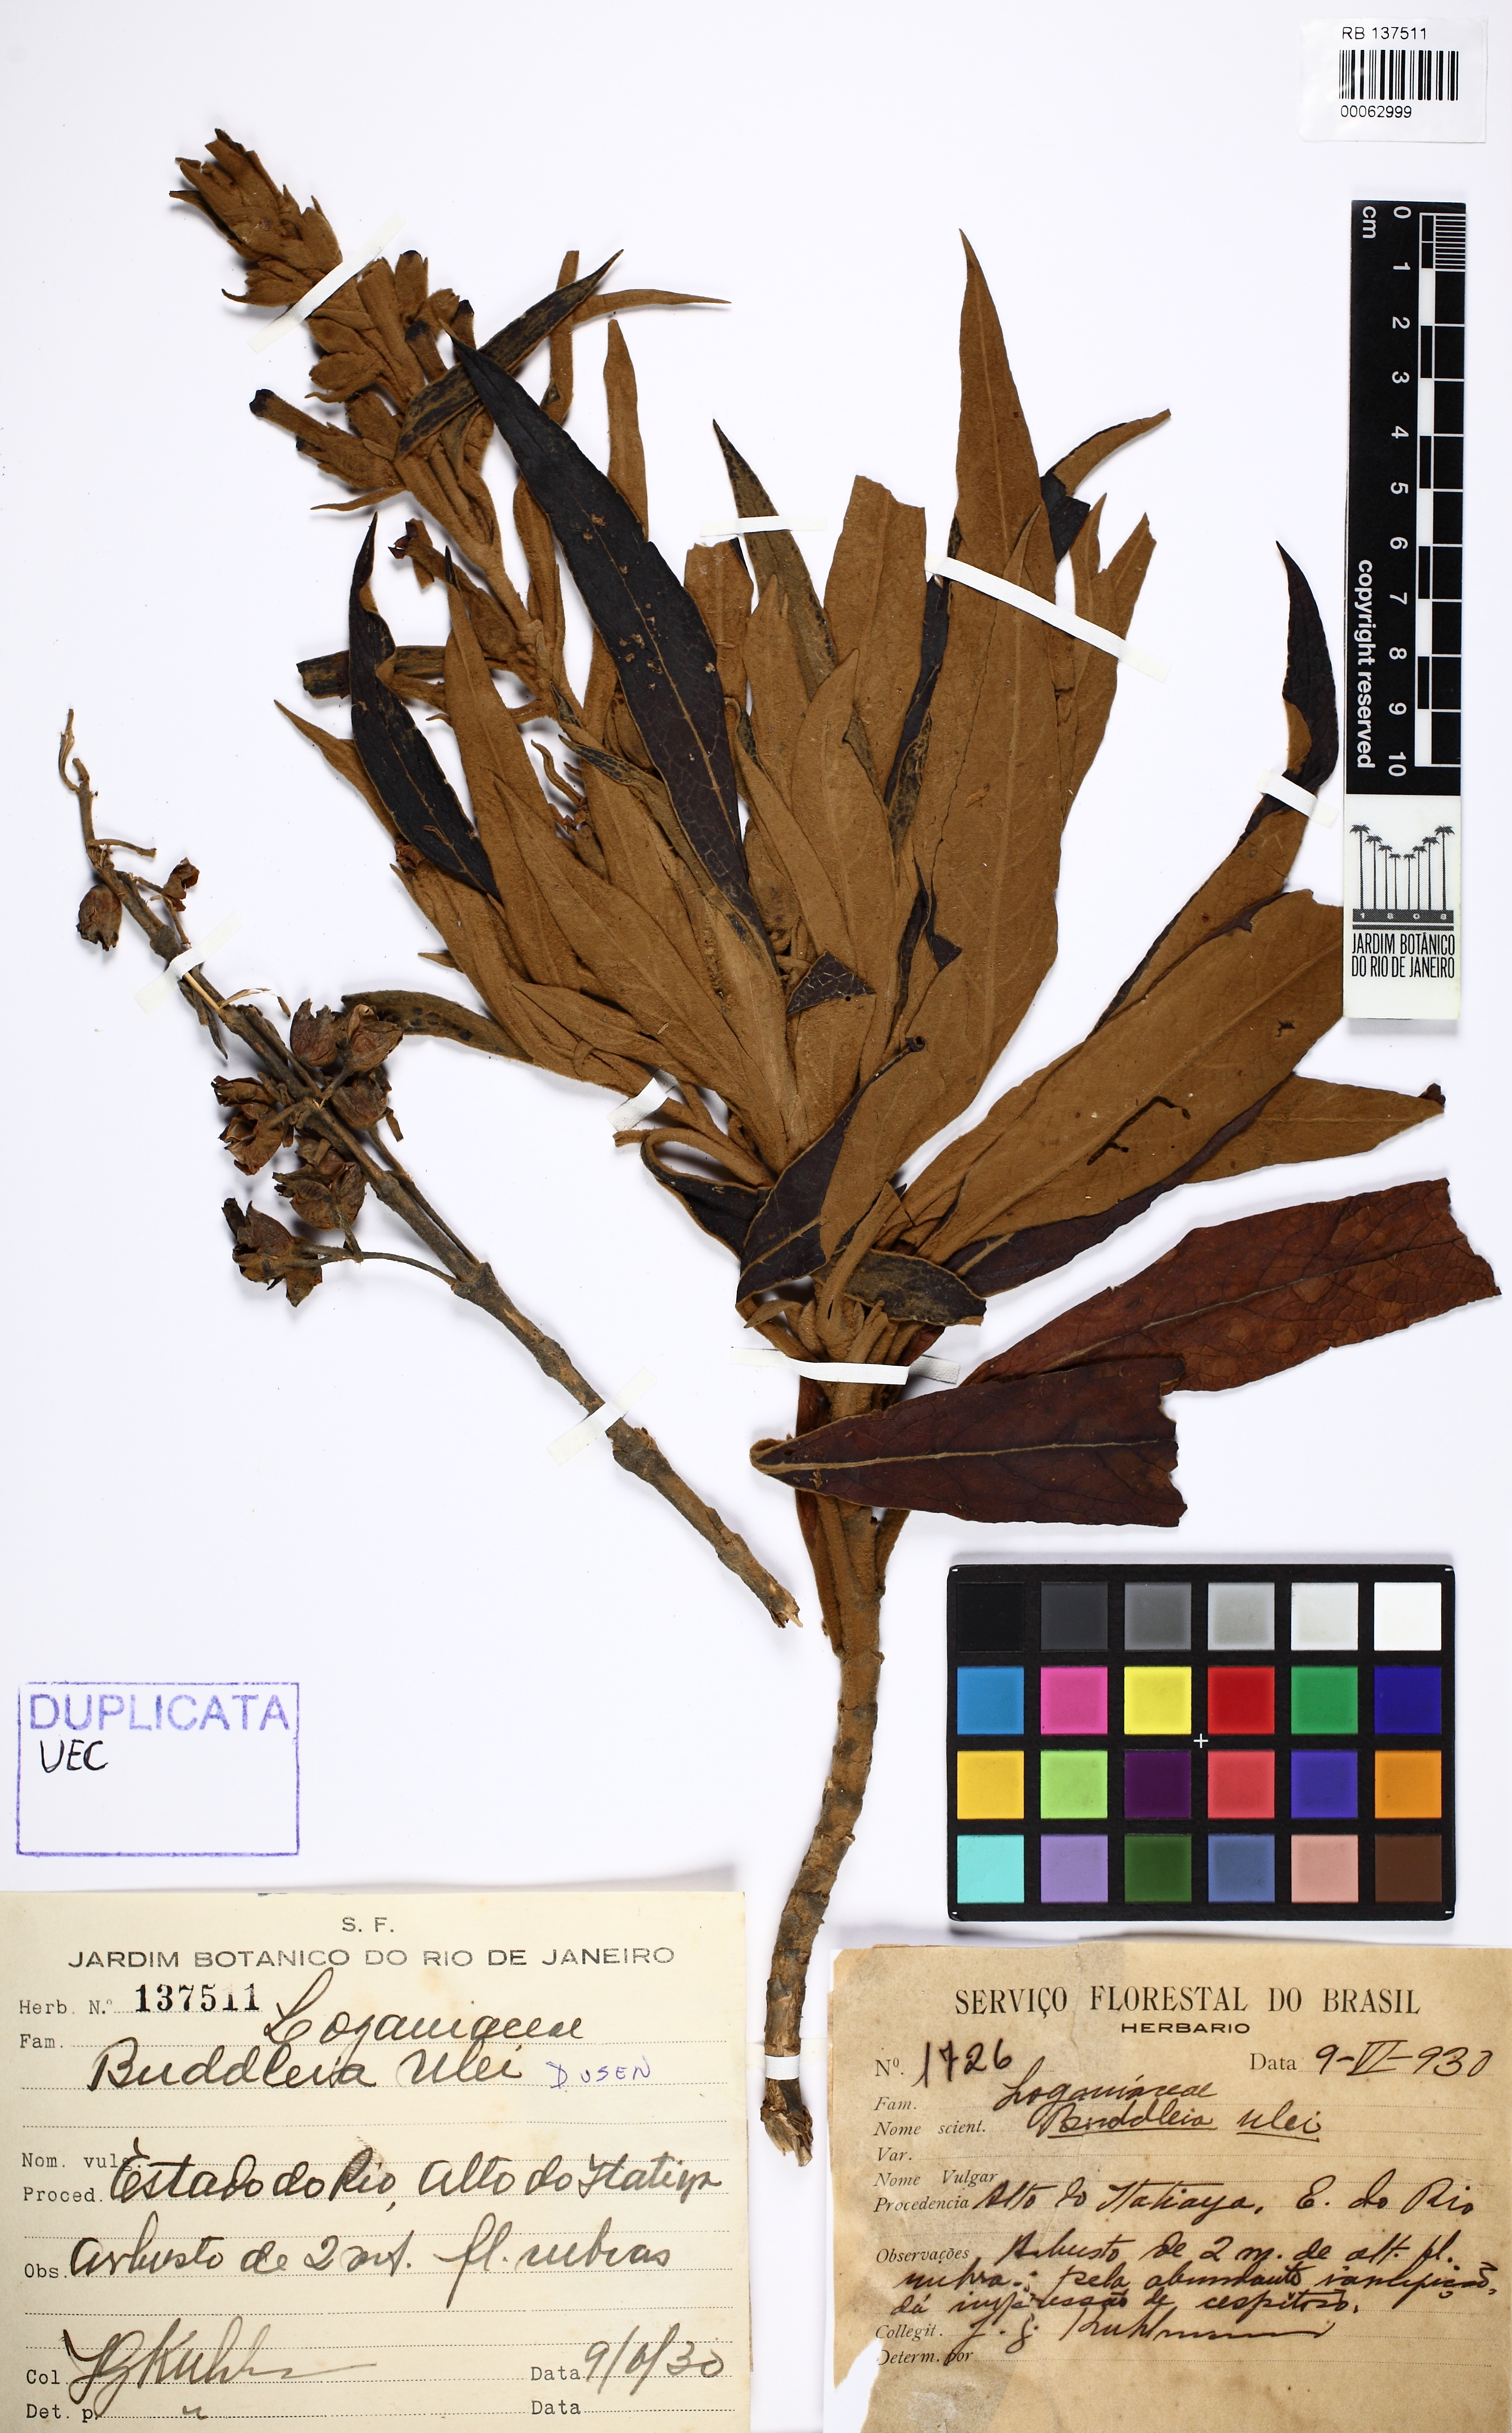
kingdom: Plantae
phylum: Tracheophyta
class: Magnoliopsida
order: Lamiales
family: Scrophulariaceae
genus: Buddleja
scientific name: Buddleja speciosissima
